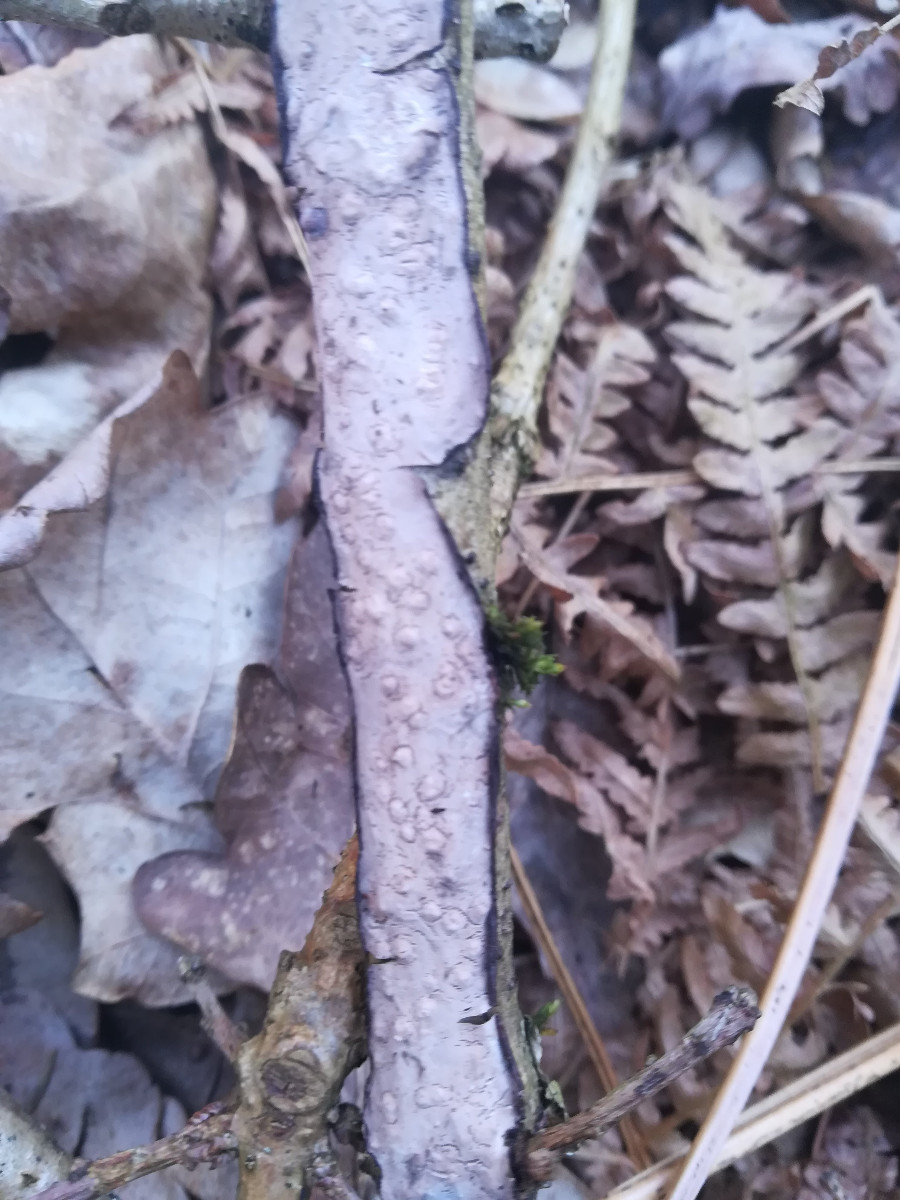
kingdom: Fungi
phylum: Basidiomycota
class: Agaricomycetes
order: Russulales
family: Peniophoraceae
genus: Peniophora
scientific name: Peniophora quercina
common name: ege-voksskind
